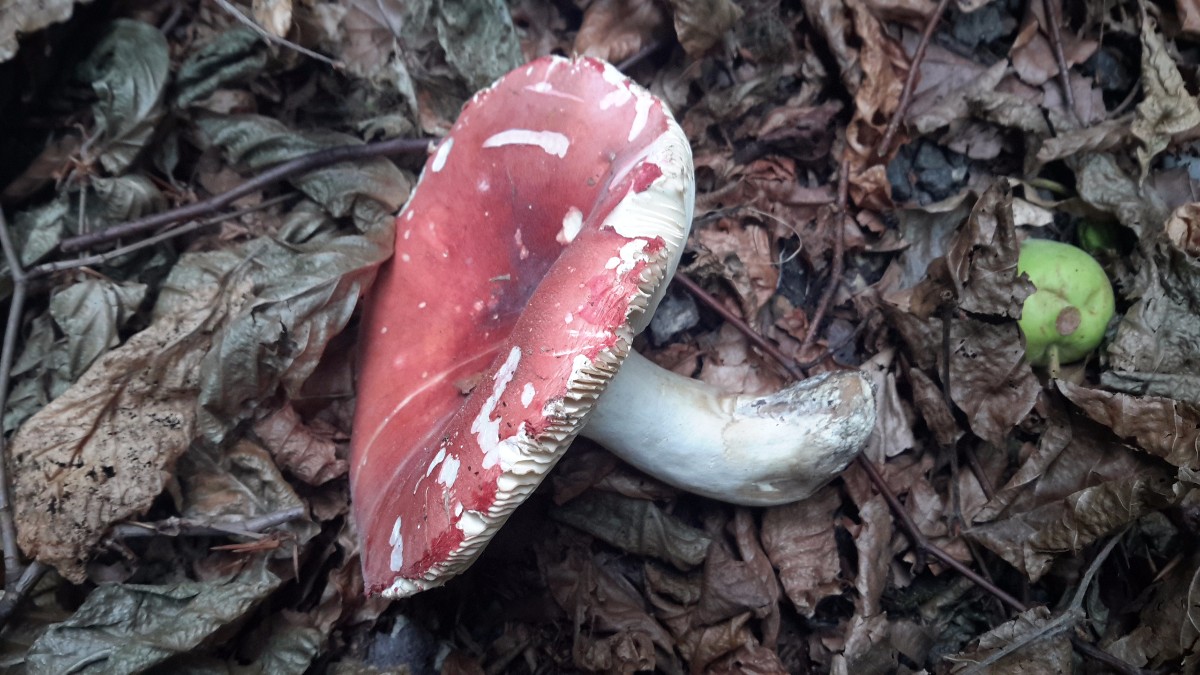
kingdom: Fungi
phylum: Basidiomycota
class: Agaricomycetes
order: Russulales
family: Russulaceae
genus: Russula
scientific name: Russula aurora
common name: rosa skørhat
